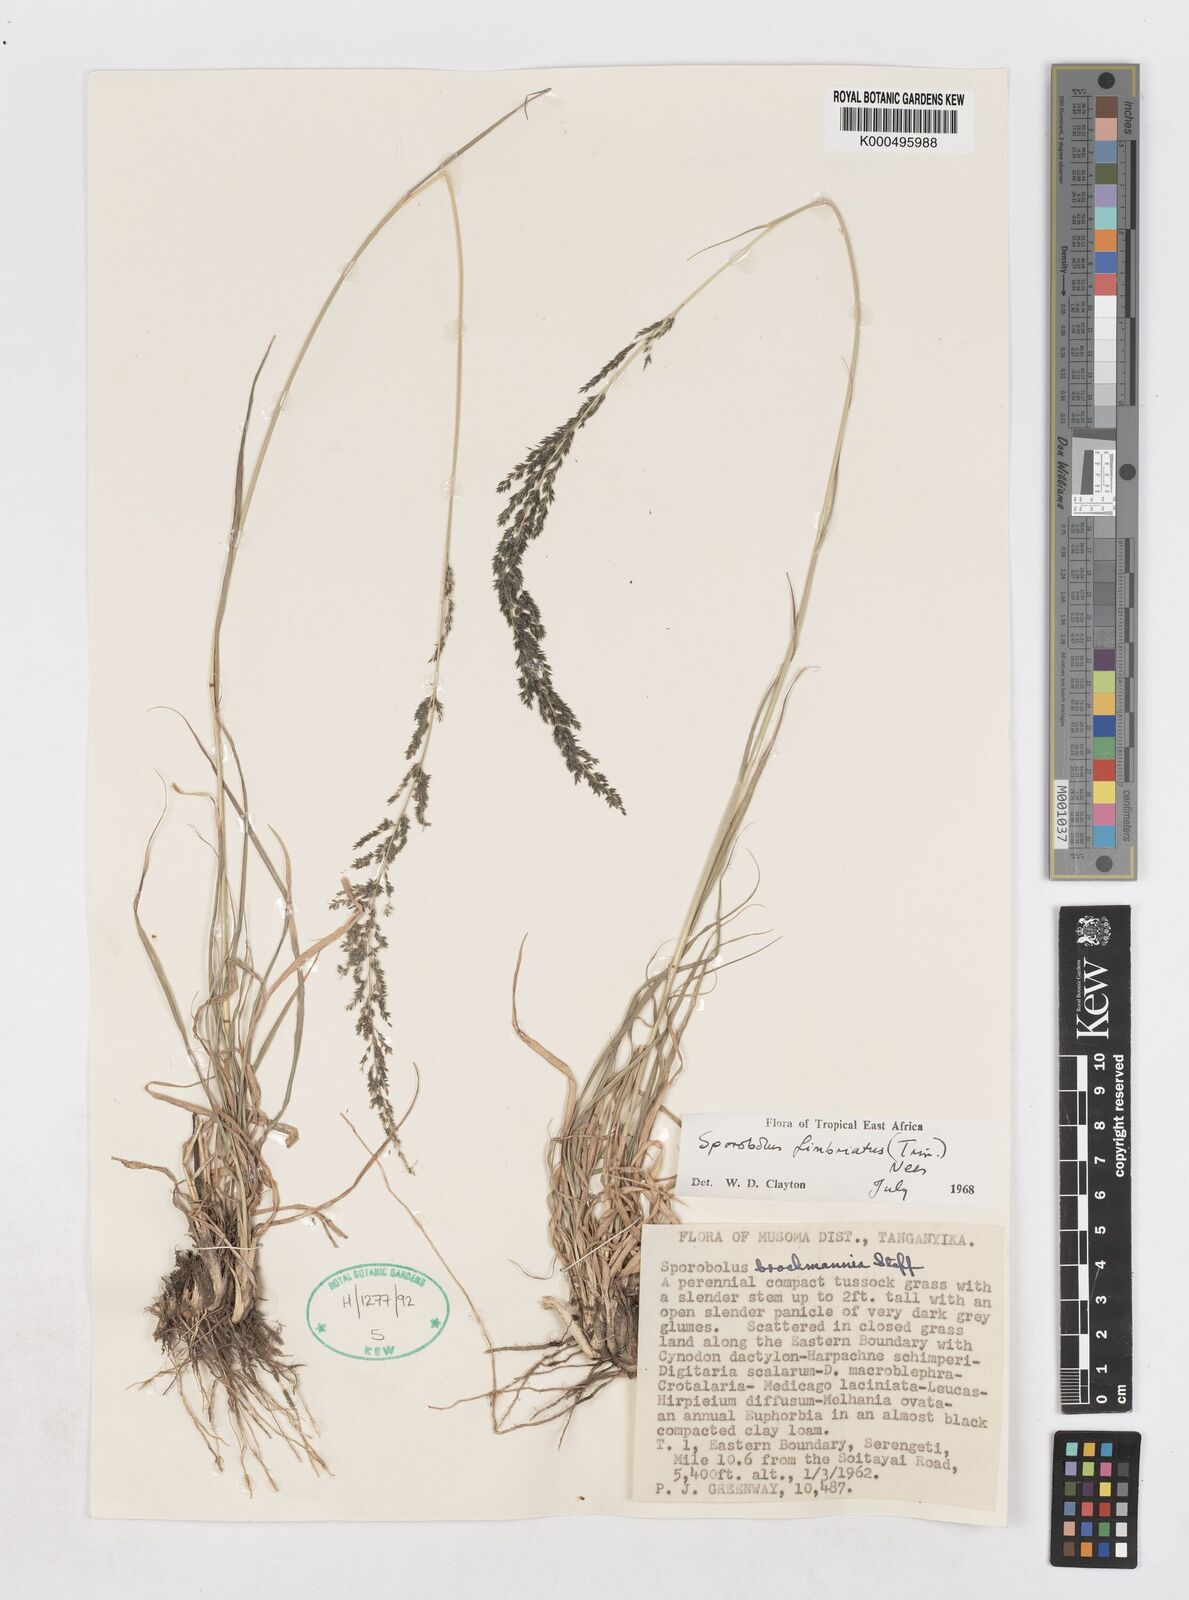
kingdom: Plantae
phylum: Tracheophyta
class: Liliopsida
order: Poales
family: Poaceae
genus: Sporobolus
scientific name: Sporobolus fimbriatus
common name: Fringed dropseed
